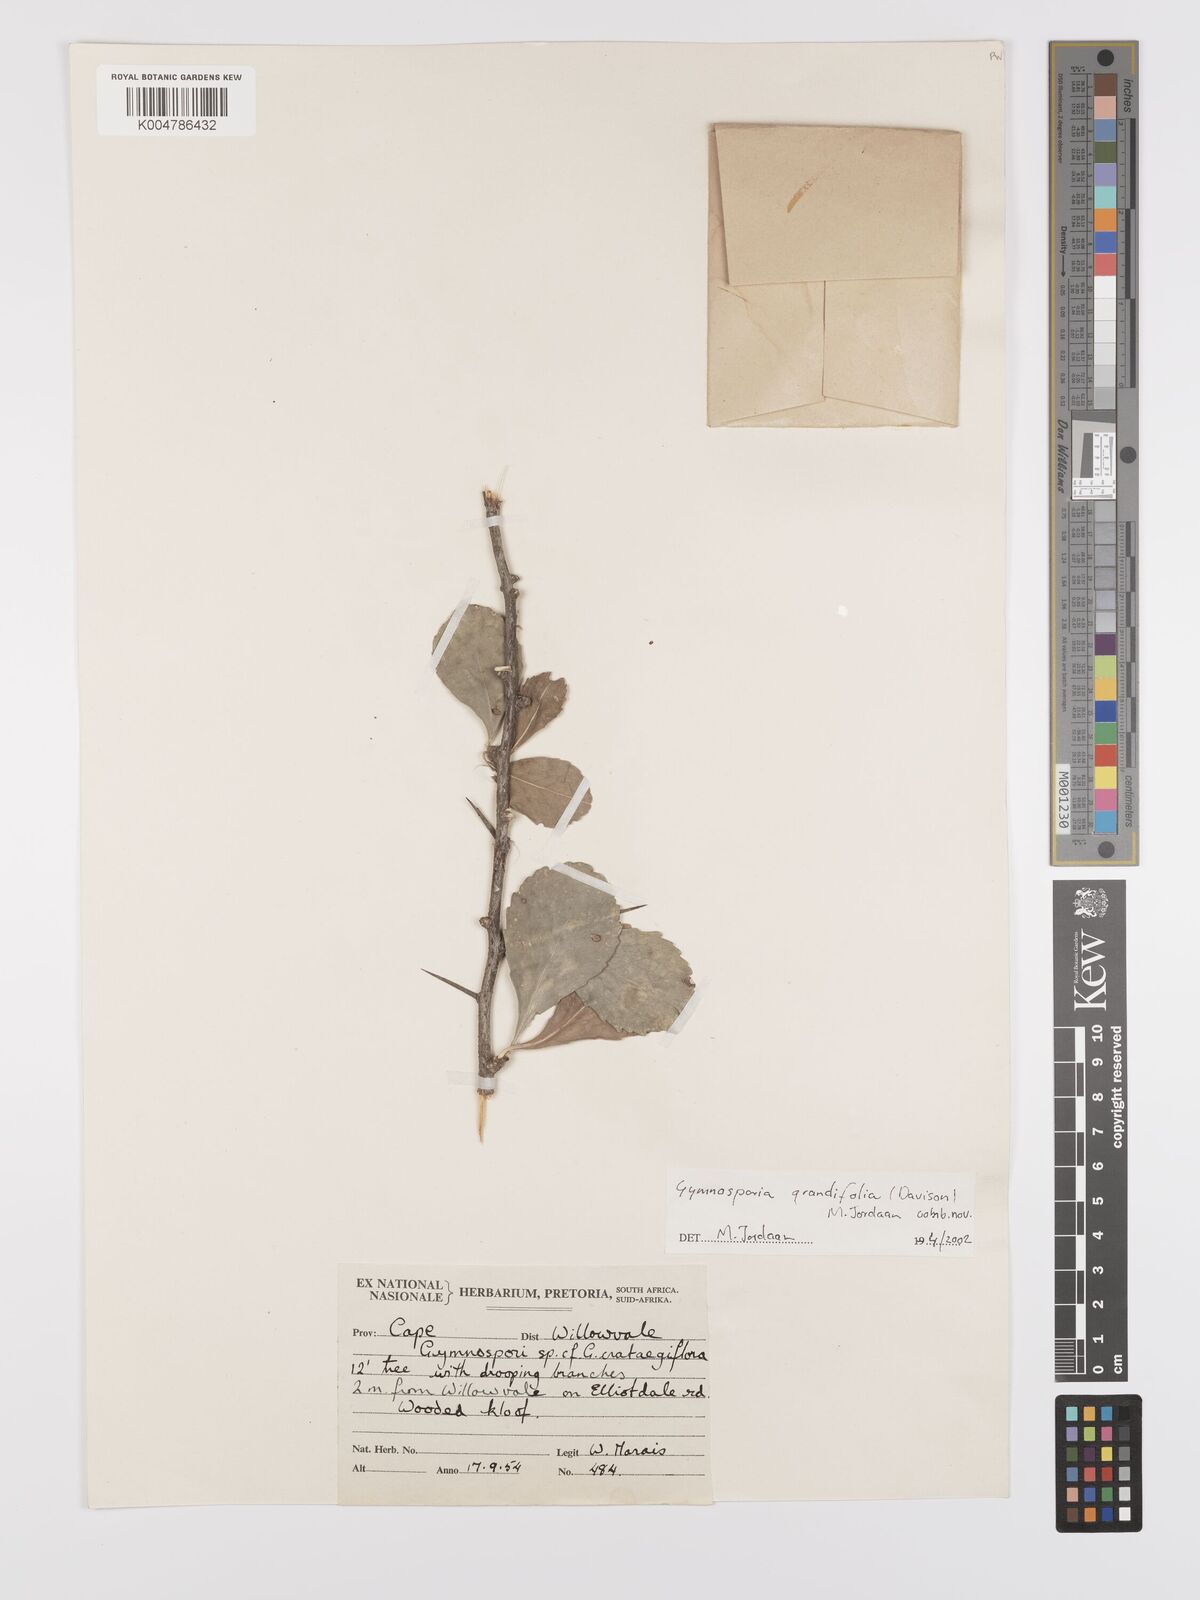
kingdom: Plantae
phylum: Tracheophyta
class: Magnoliopsida
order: Celastrales
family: Celastraceae
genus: Gymnosporia
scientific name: Gymnosporia grandifolia
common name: Large-fruited forest spike-thorn
